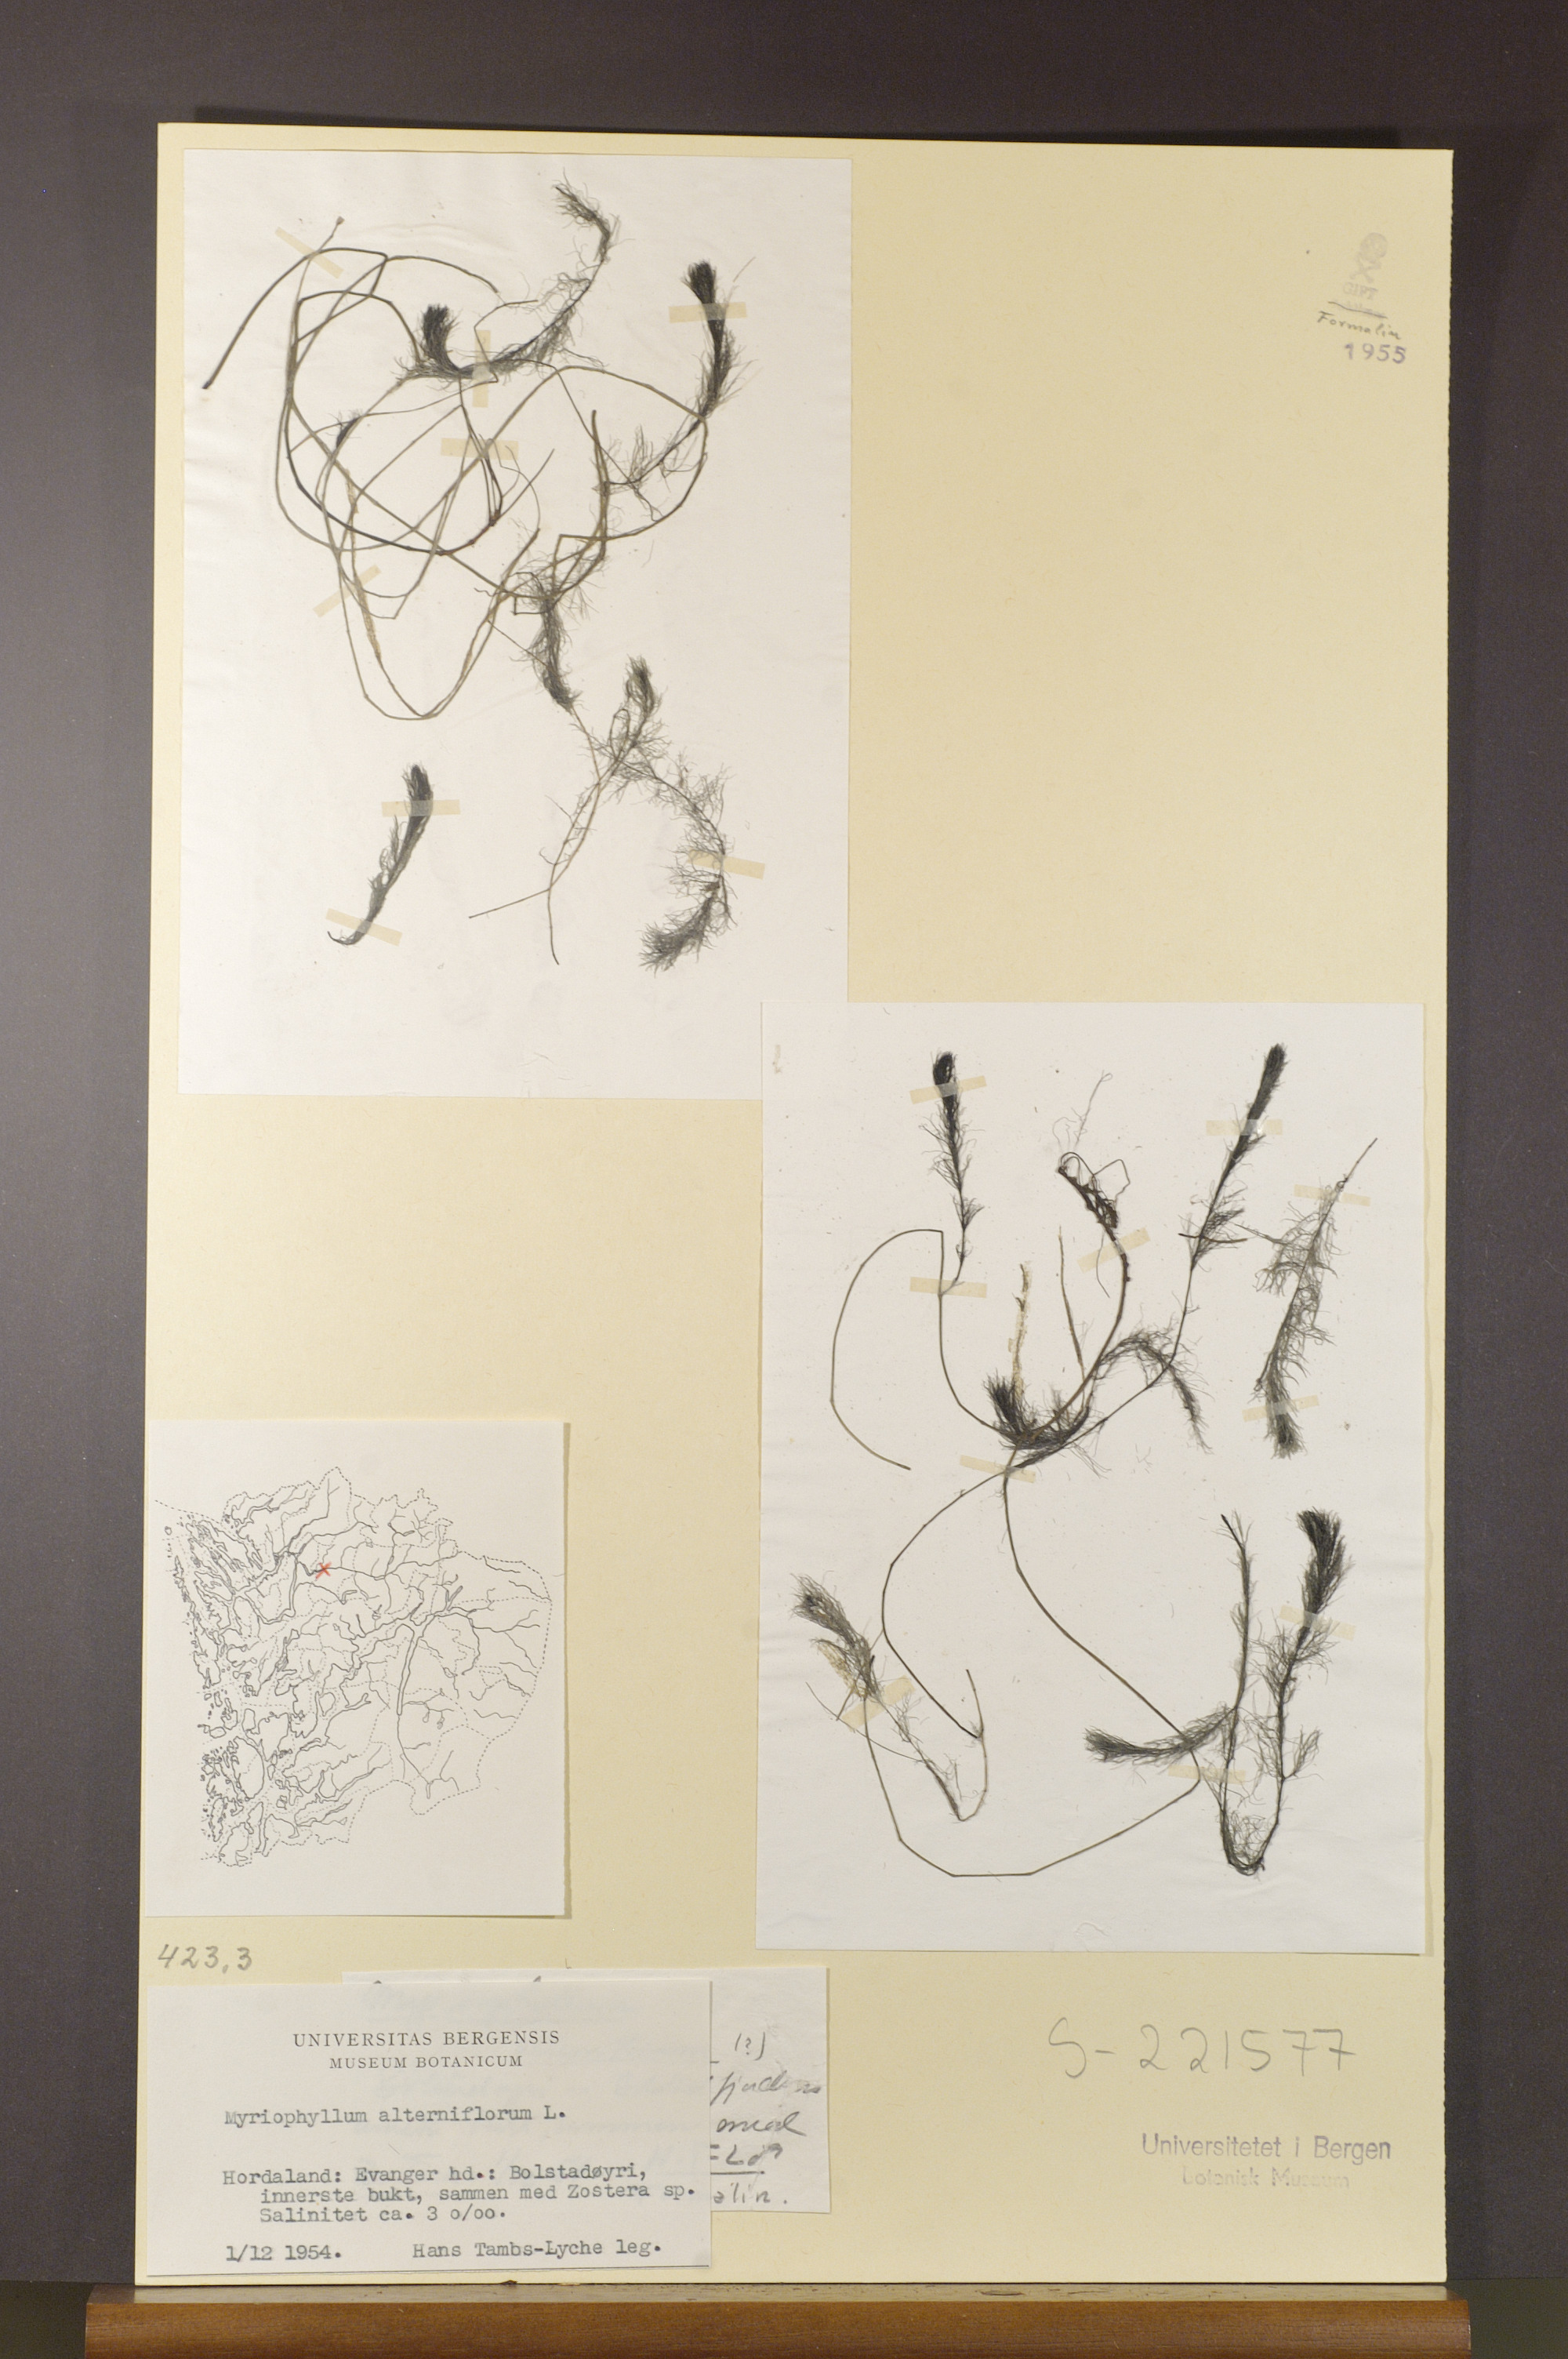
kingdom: Plantae
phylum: Tracheophyta
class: Magnoliopsida
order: Saxifragales
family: Haloragaceae
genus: Myriophyllum
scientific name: Myriophyllum alterniflorum
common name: Alternate water-milfoil
